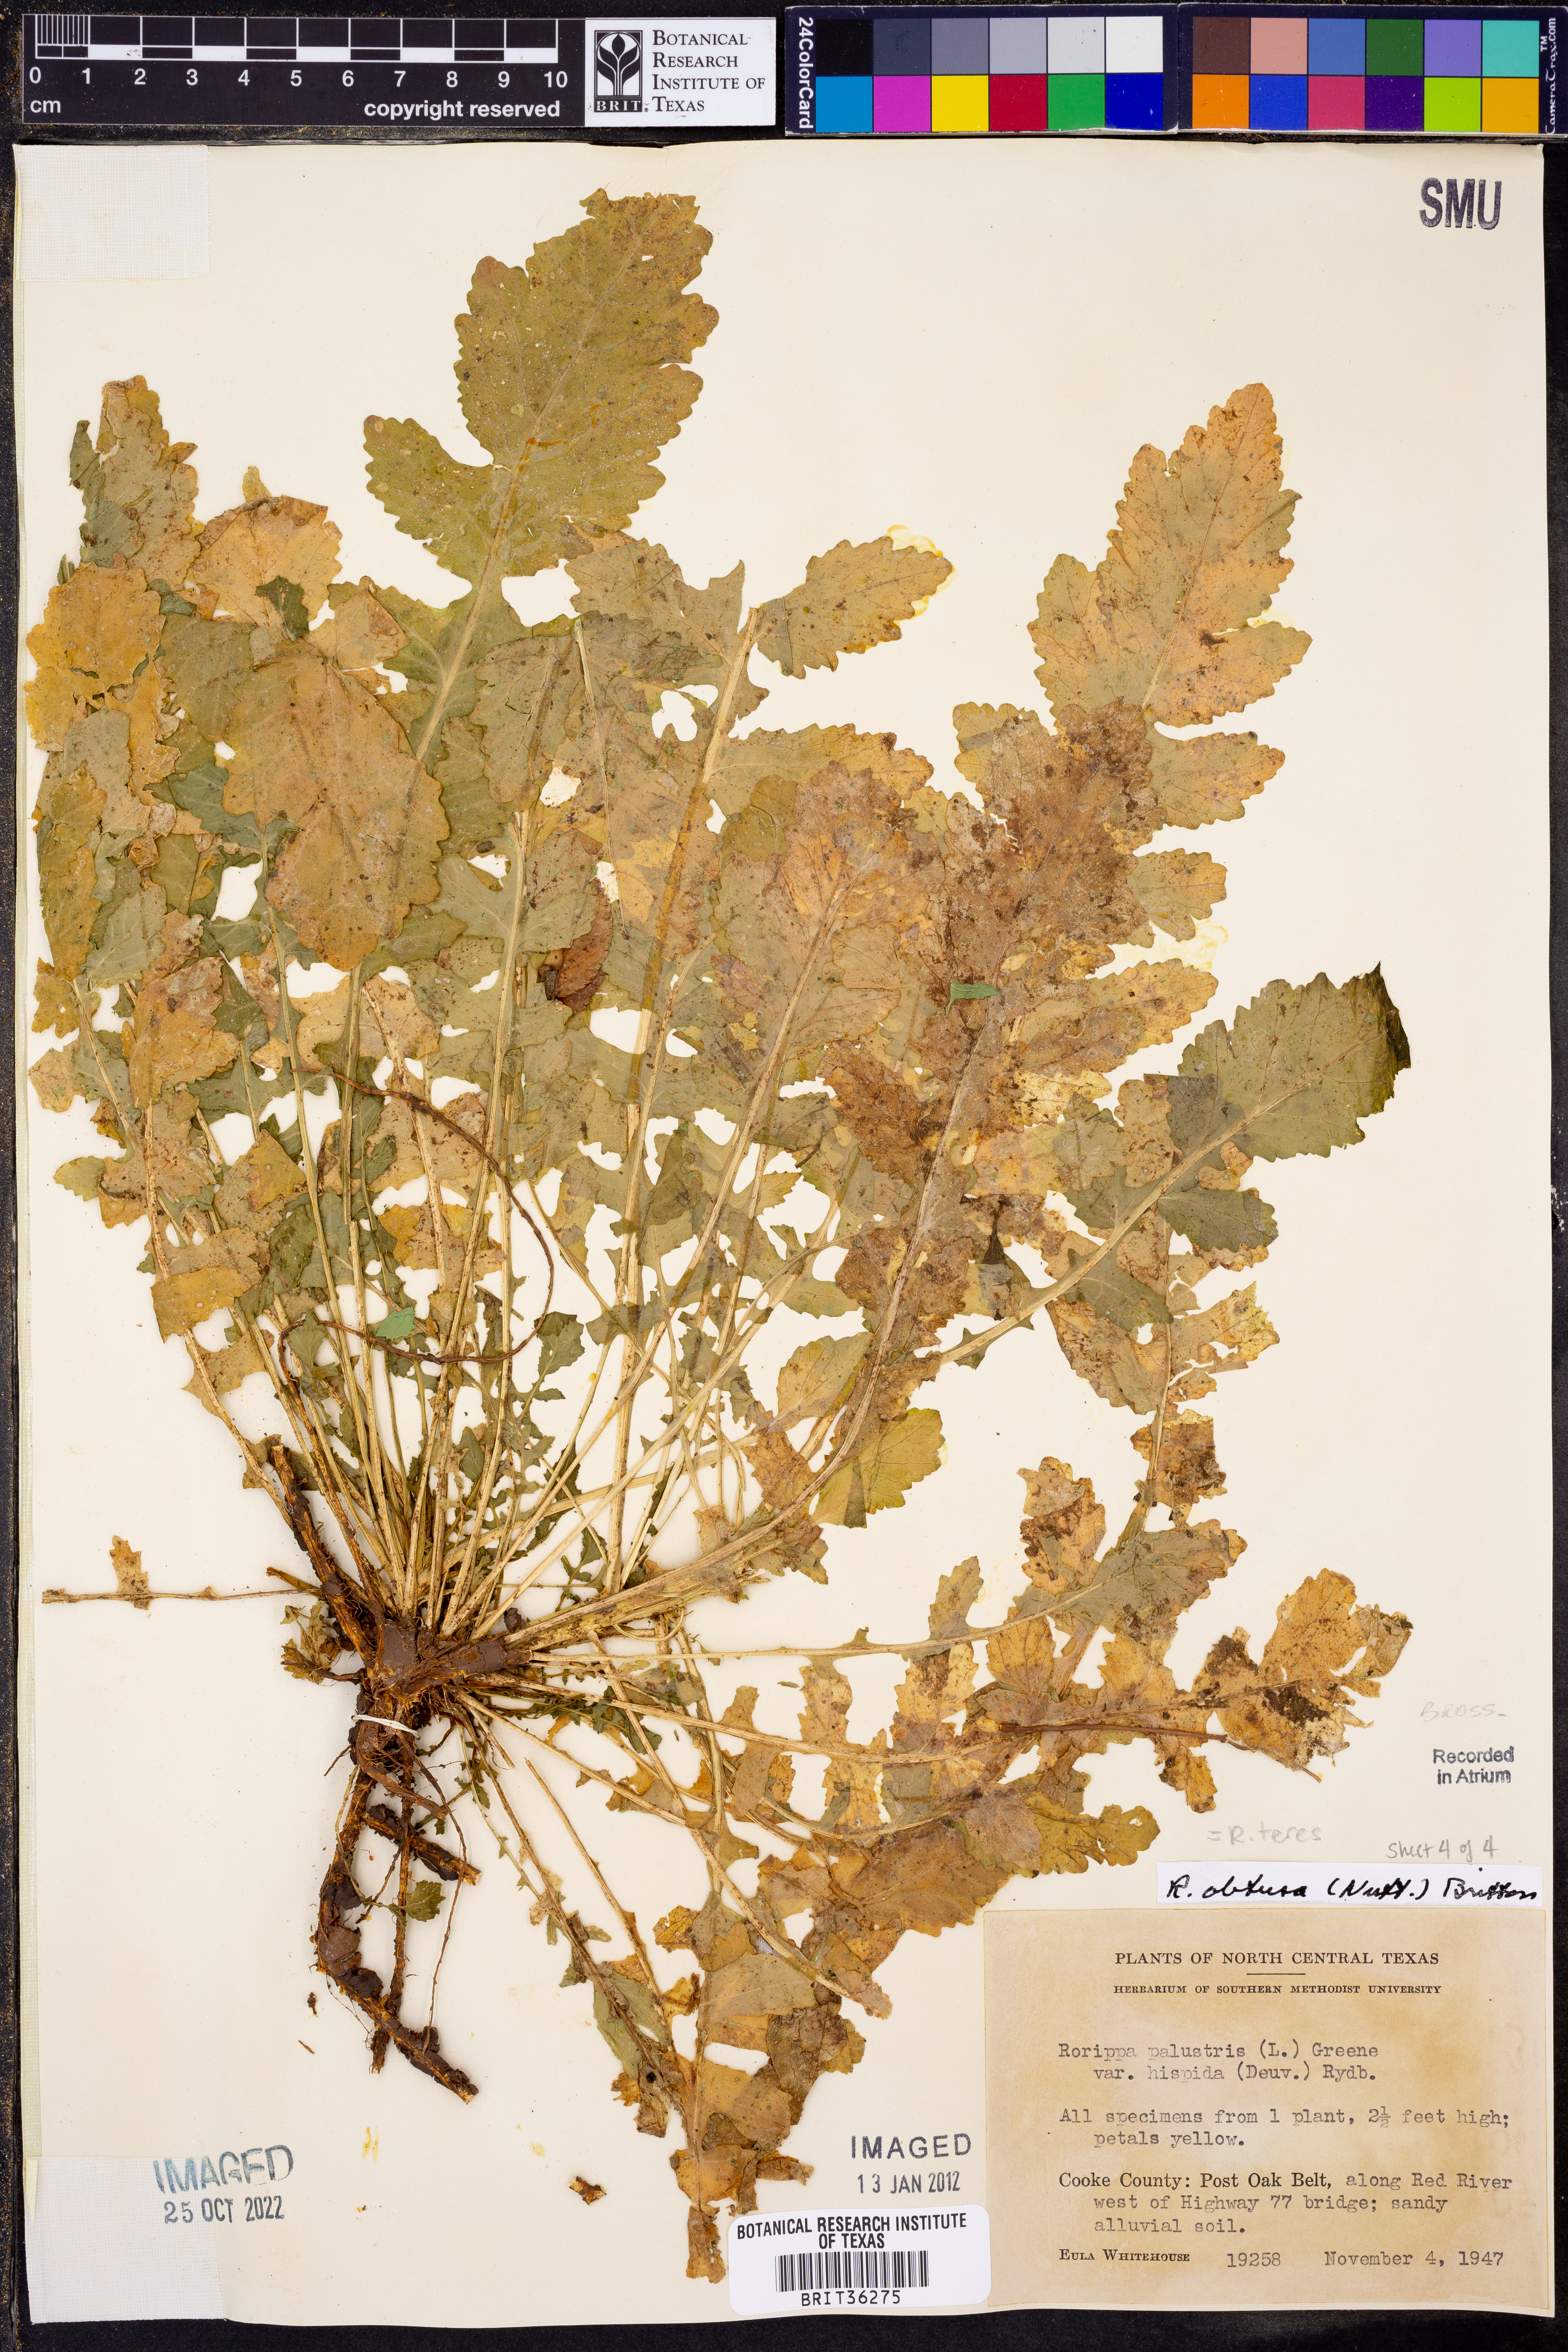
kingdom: Plantae
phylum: Tracheophyta
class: Magnoliopsida
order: Brassicales
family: Brassicaceae
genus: Rorippa
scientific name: Rorippa teres
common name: Southern marsh yellowcress
